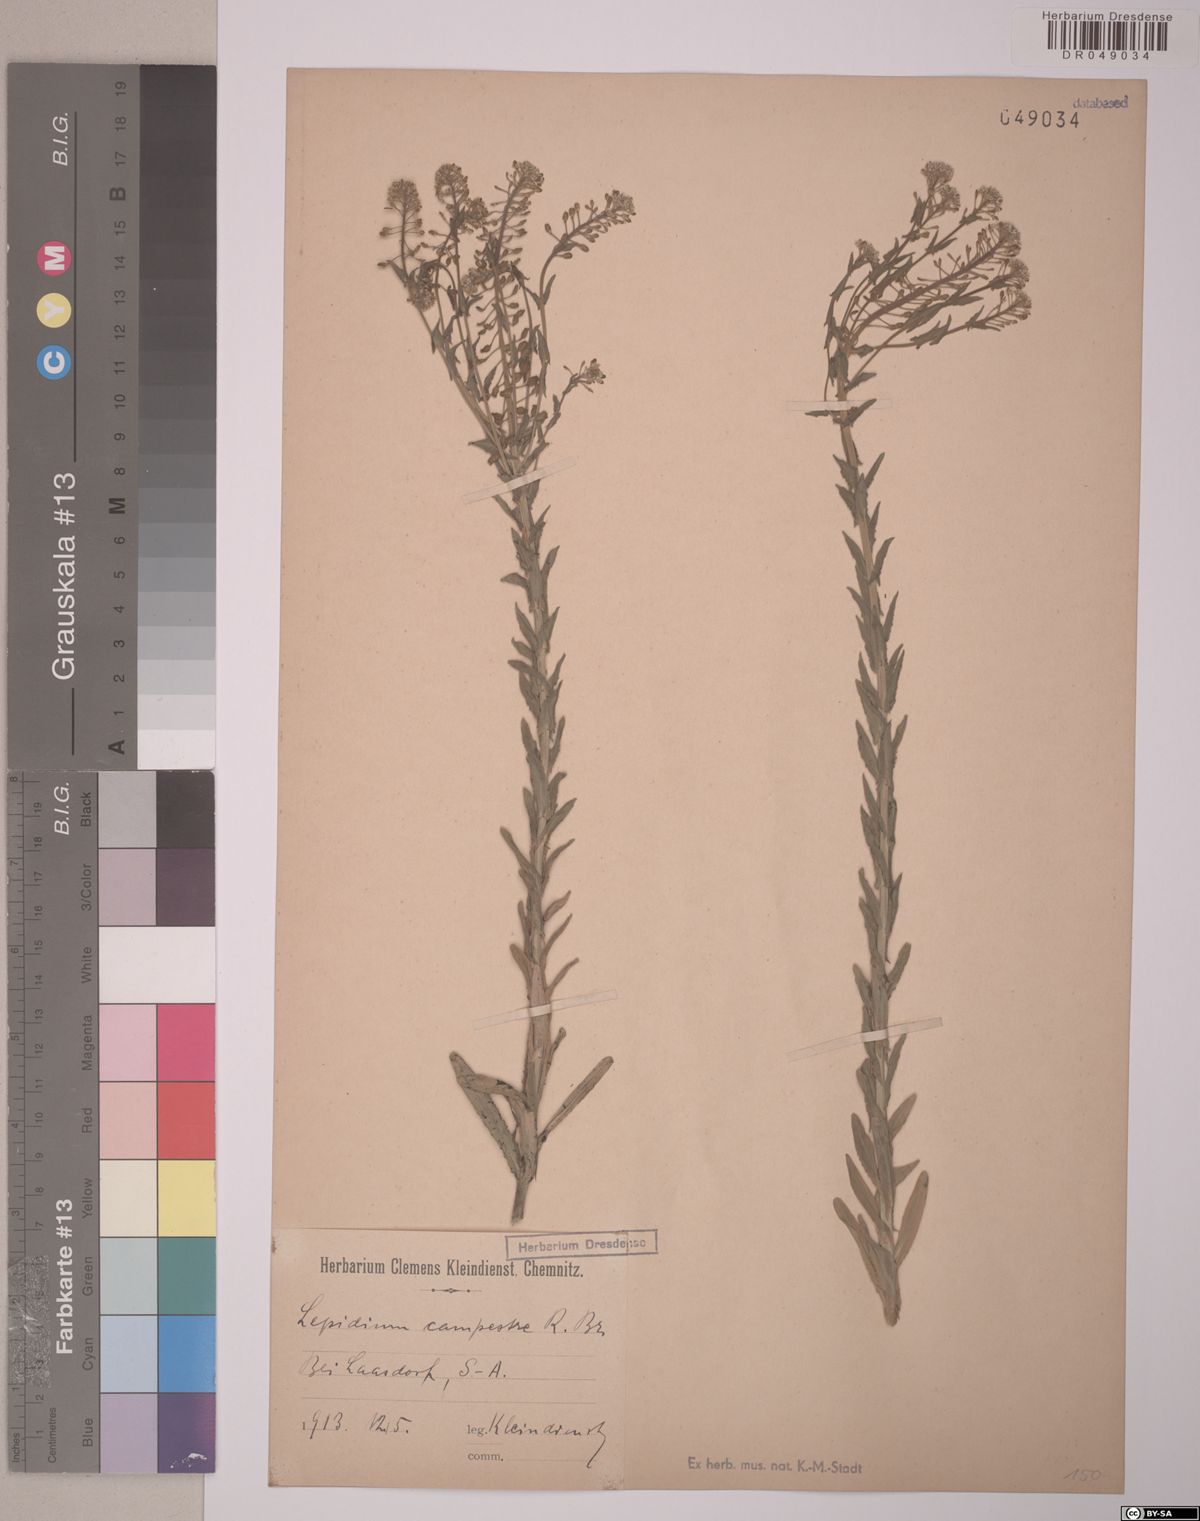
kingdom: Plantae
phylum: Tracheophyta
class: Magnoliopsida
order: Brassicales
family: Brassicaceae
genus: Lepidium
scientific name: Lepidium campestre
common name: Field pepperwort
